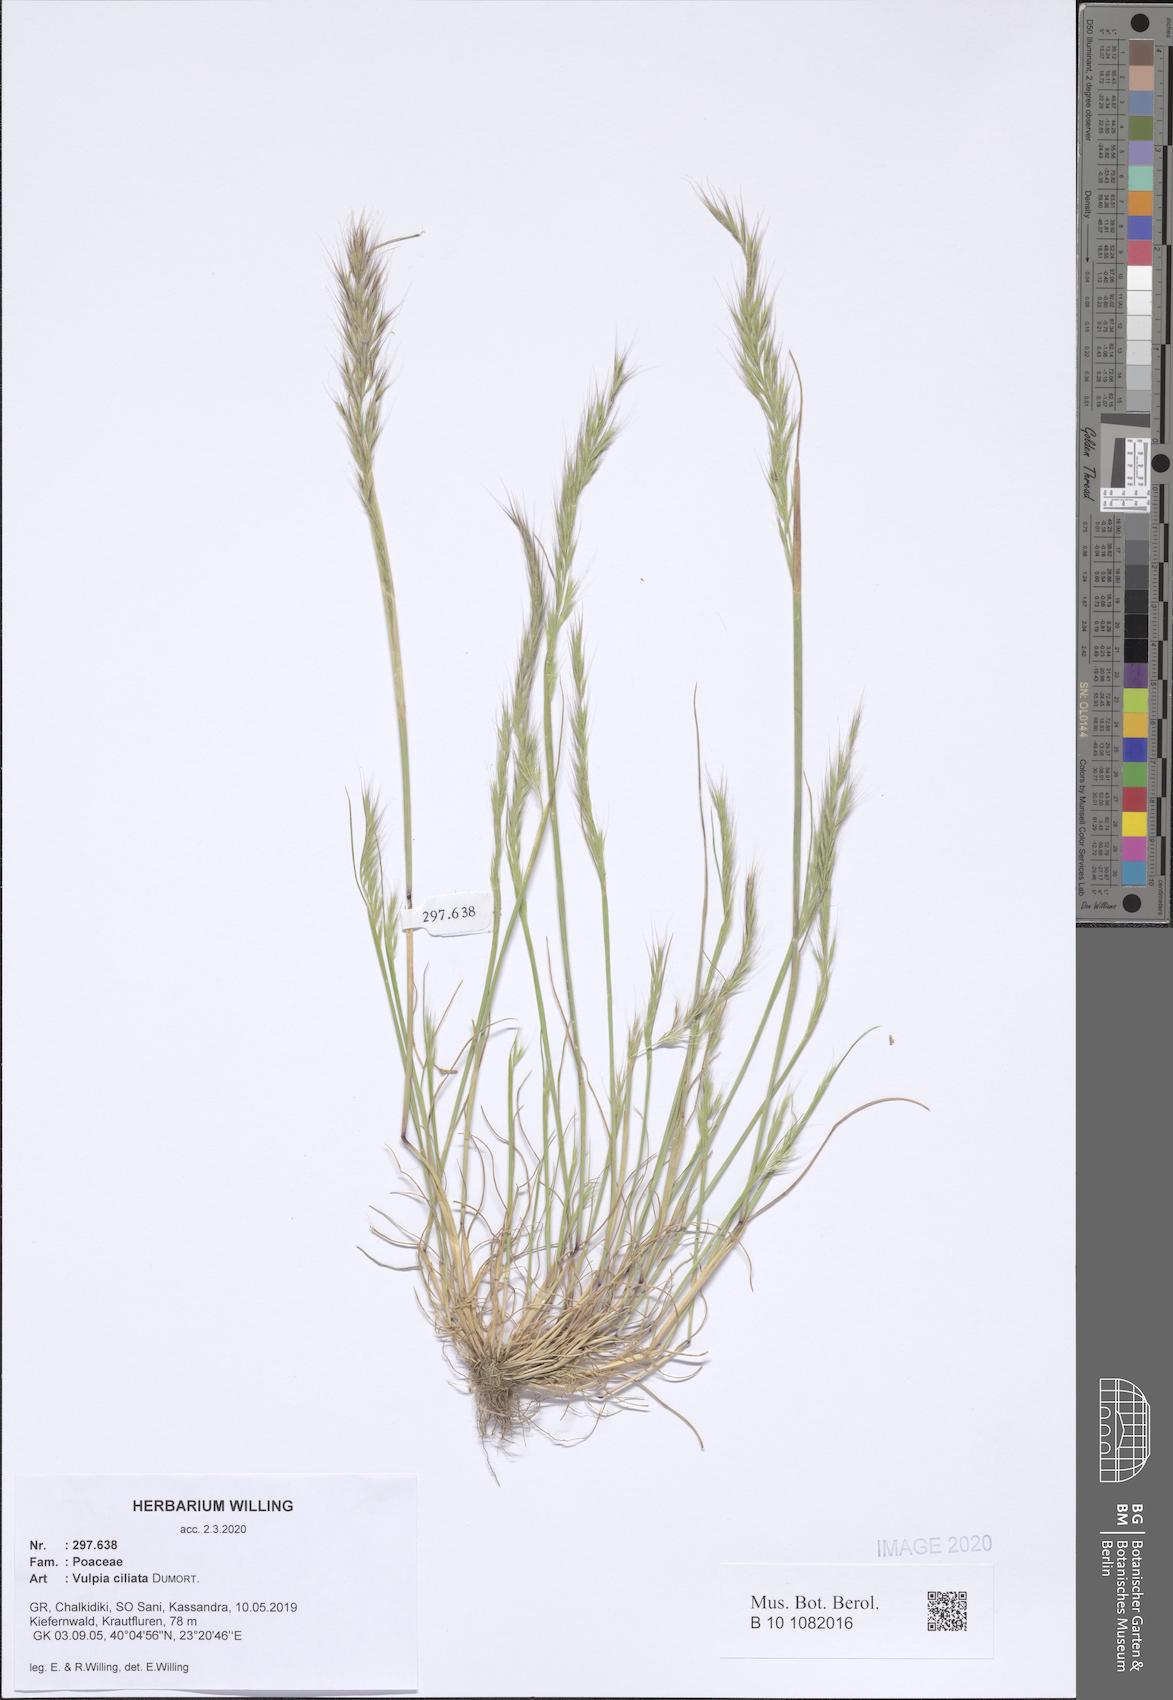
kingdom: Plantae
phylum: Tracheophyta
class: Liliopsida
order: Poales
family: Poaceae
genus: Festuca
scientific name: Festuca ambigua
